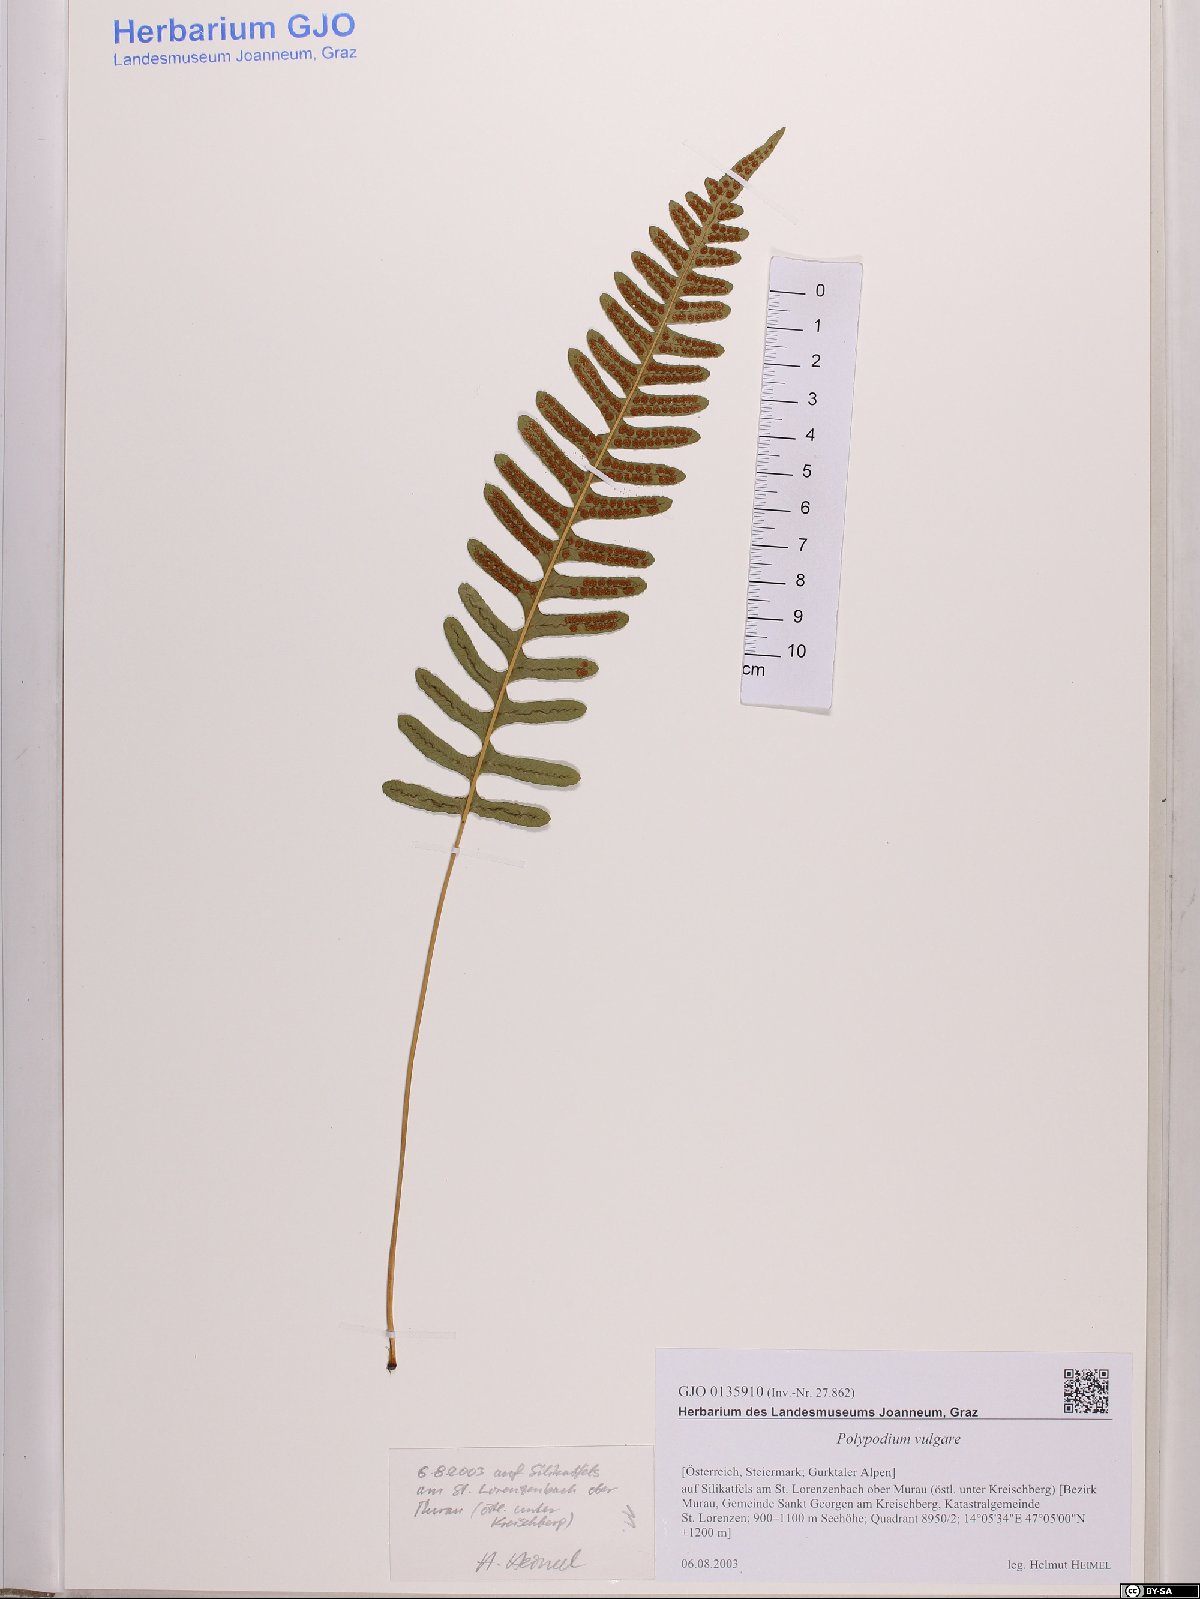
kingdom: Plantae
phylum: Tracheophyta
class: Polypodiopsida
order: Polypodiales
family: Polypodiaceae
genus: Polypodium
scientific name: Polypodium vulgare
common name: Common polypody
